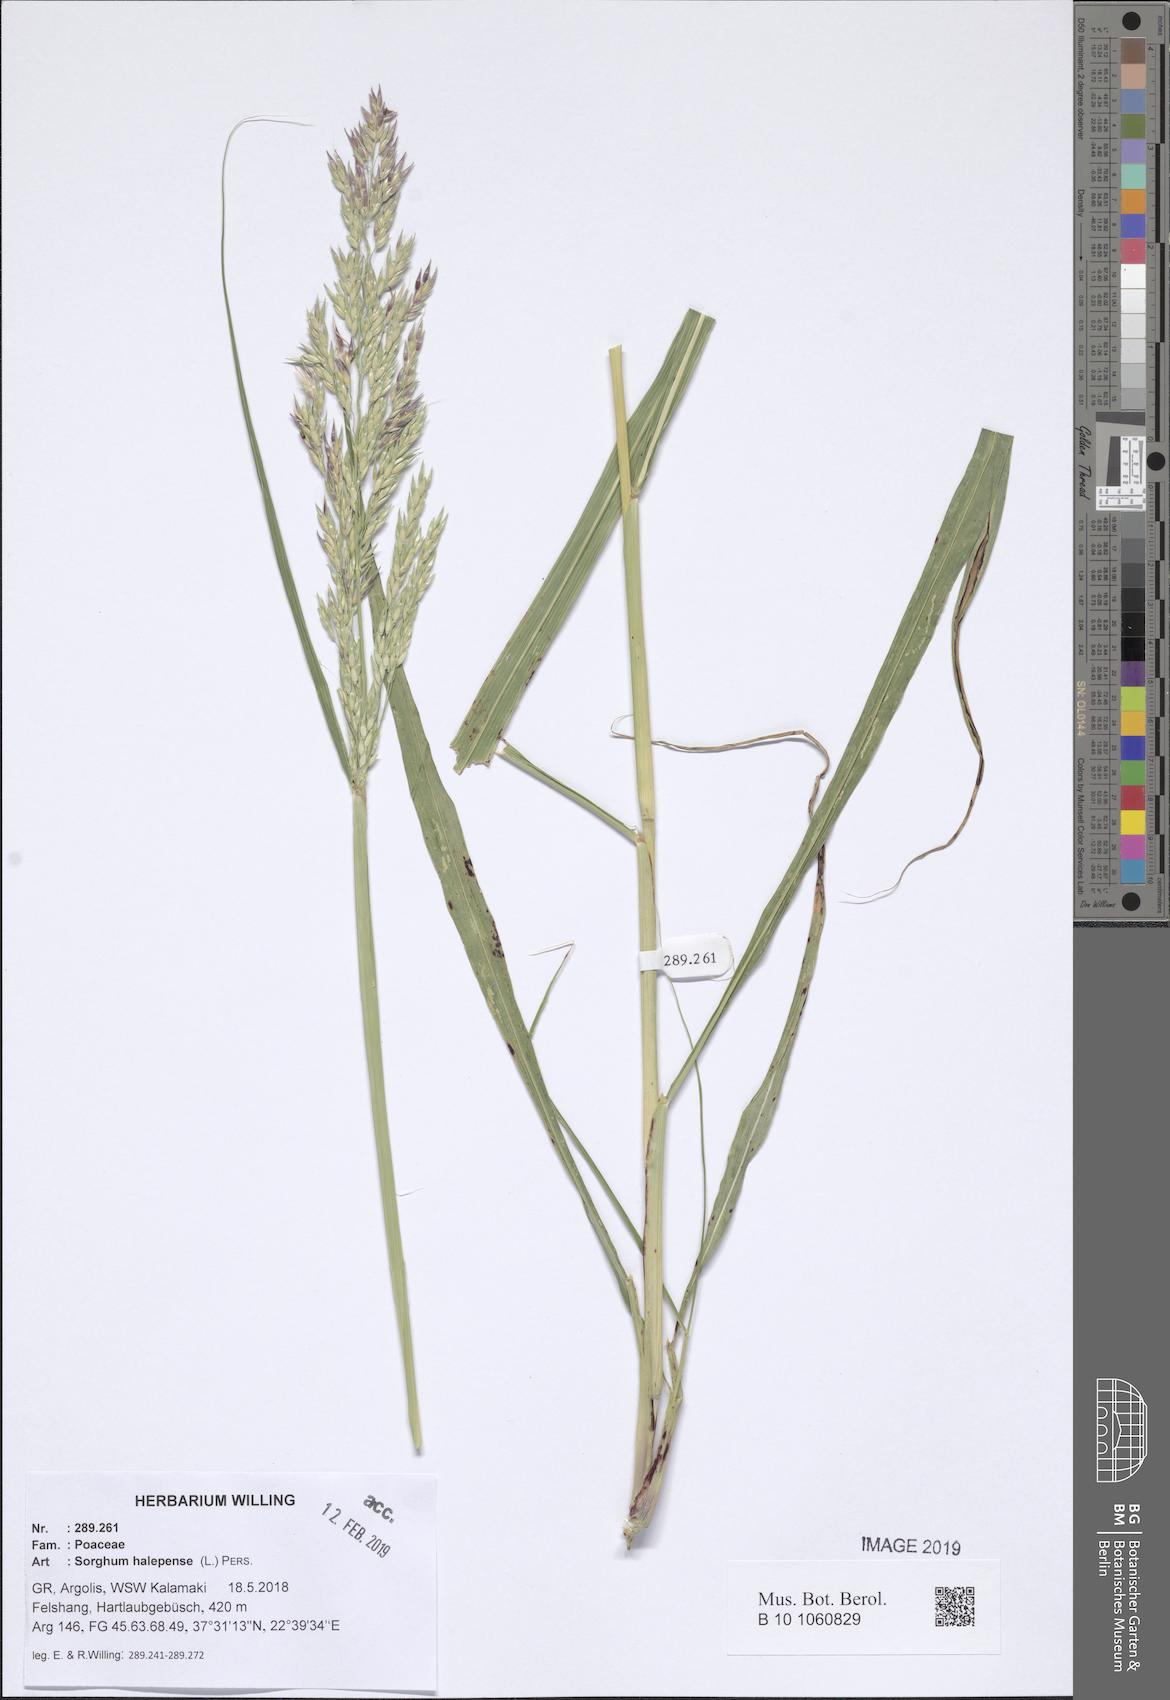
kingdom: Plantae
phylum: Tracheophyta
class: Liliopsida
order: Poales
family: Poaceae
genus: Sorghum
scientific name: Sorghum halepense
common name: Johnson-grass
